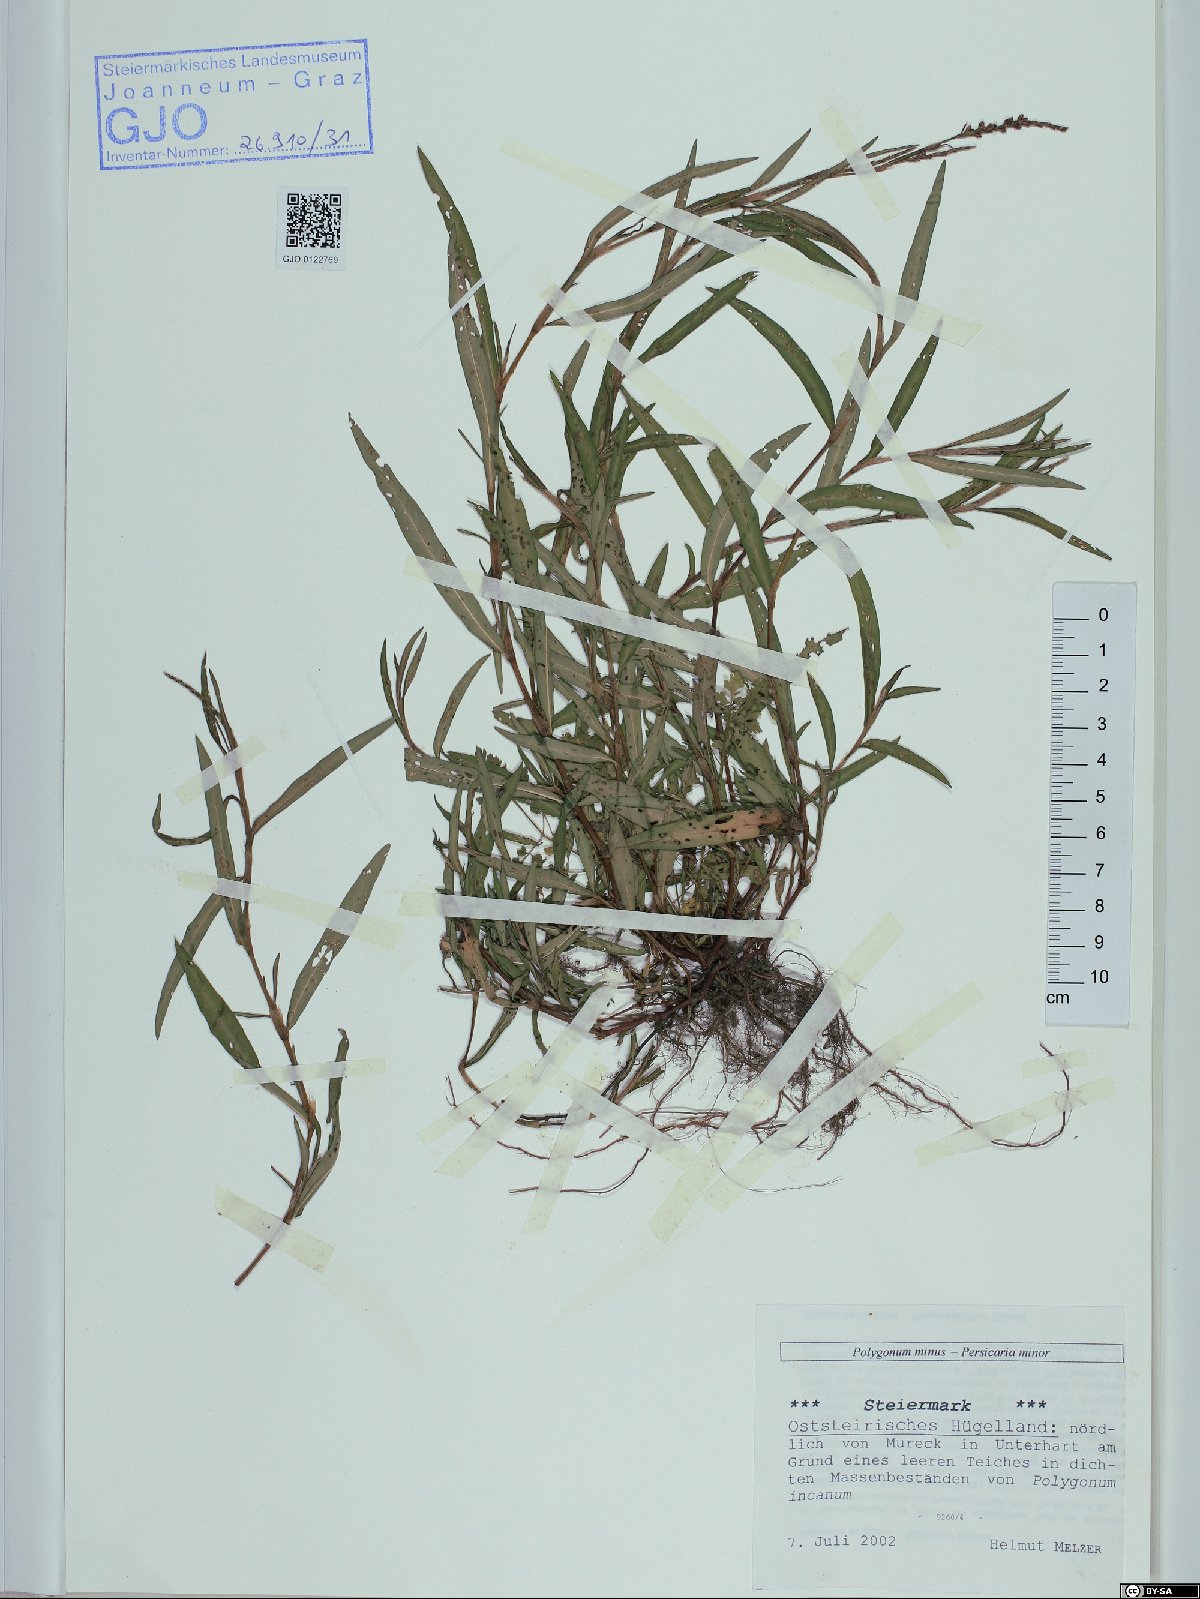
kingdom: Plantae
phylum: Tracheophyta
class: Magnoliopsida
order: Caryophyllales
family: Polygonaceae
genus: Persicaria
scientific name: Persicaria minor
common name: Small water-pepper
